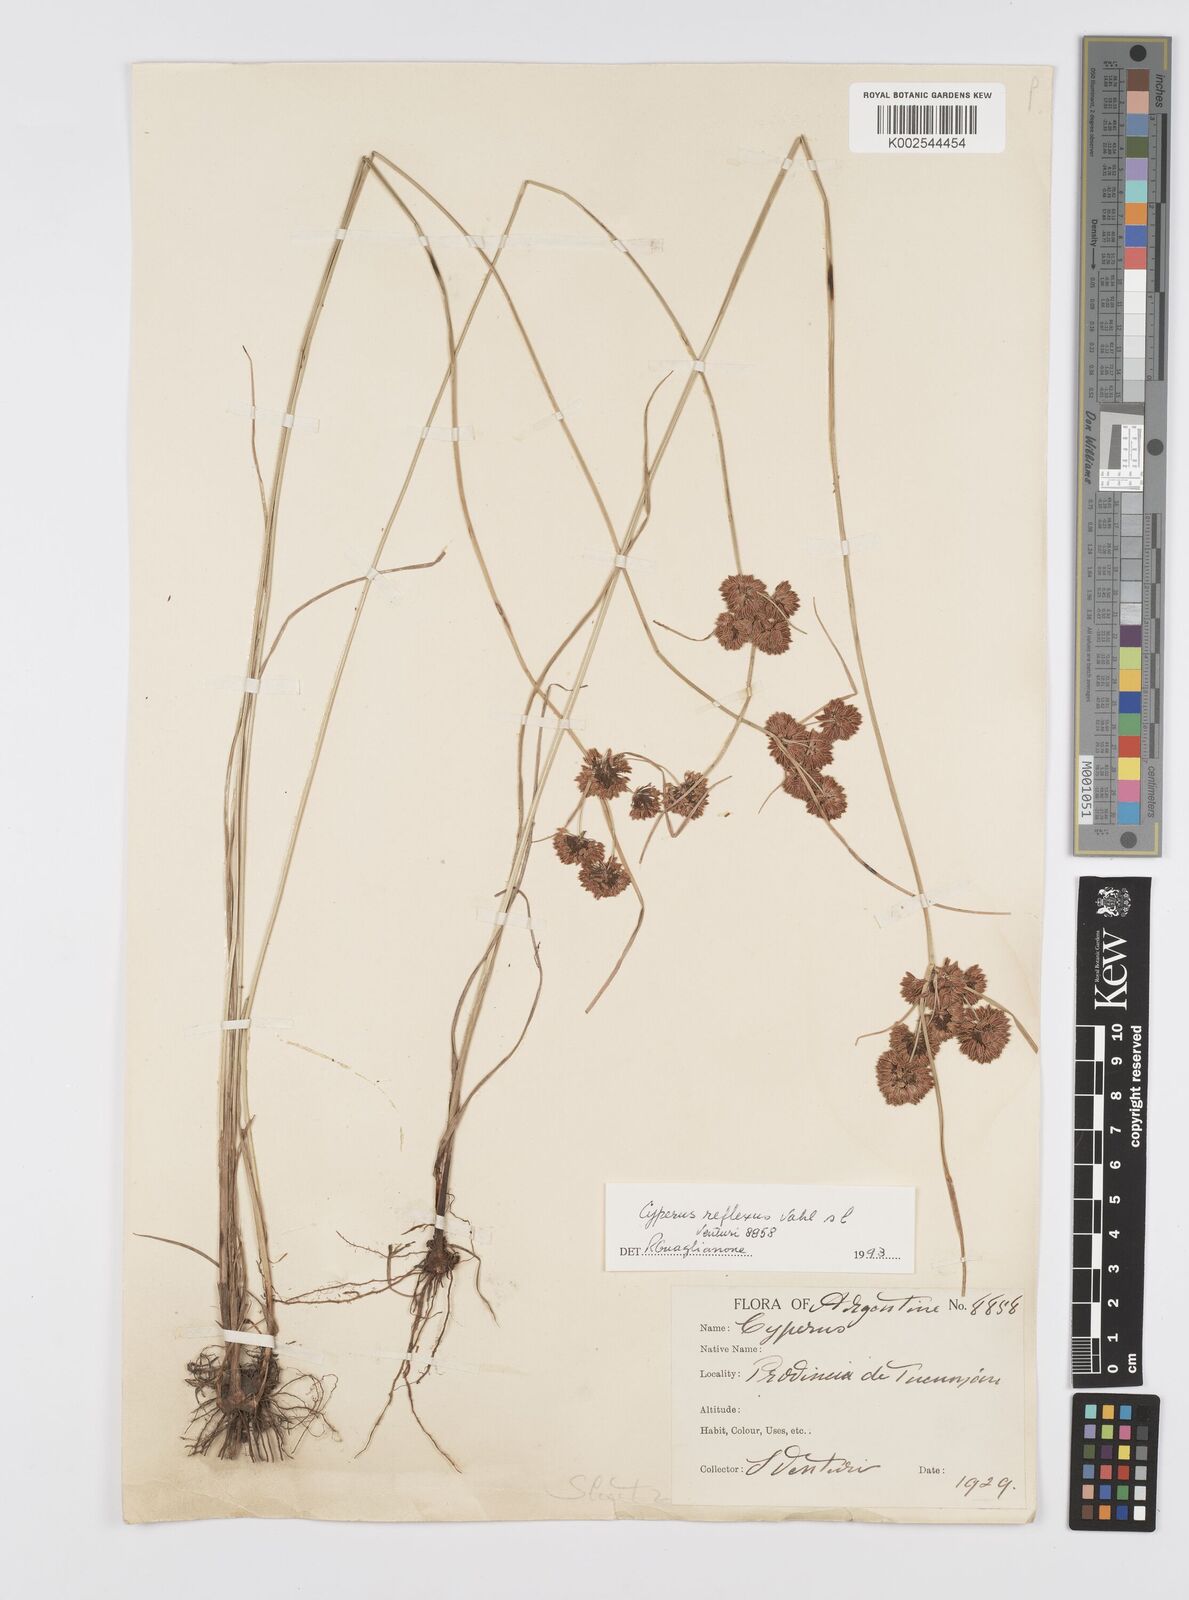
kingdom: Plantae
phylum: Tracheophyta
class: Liliopsida
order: Poales
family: Cyperaceae
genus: Cyperus
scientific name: Cyperus
